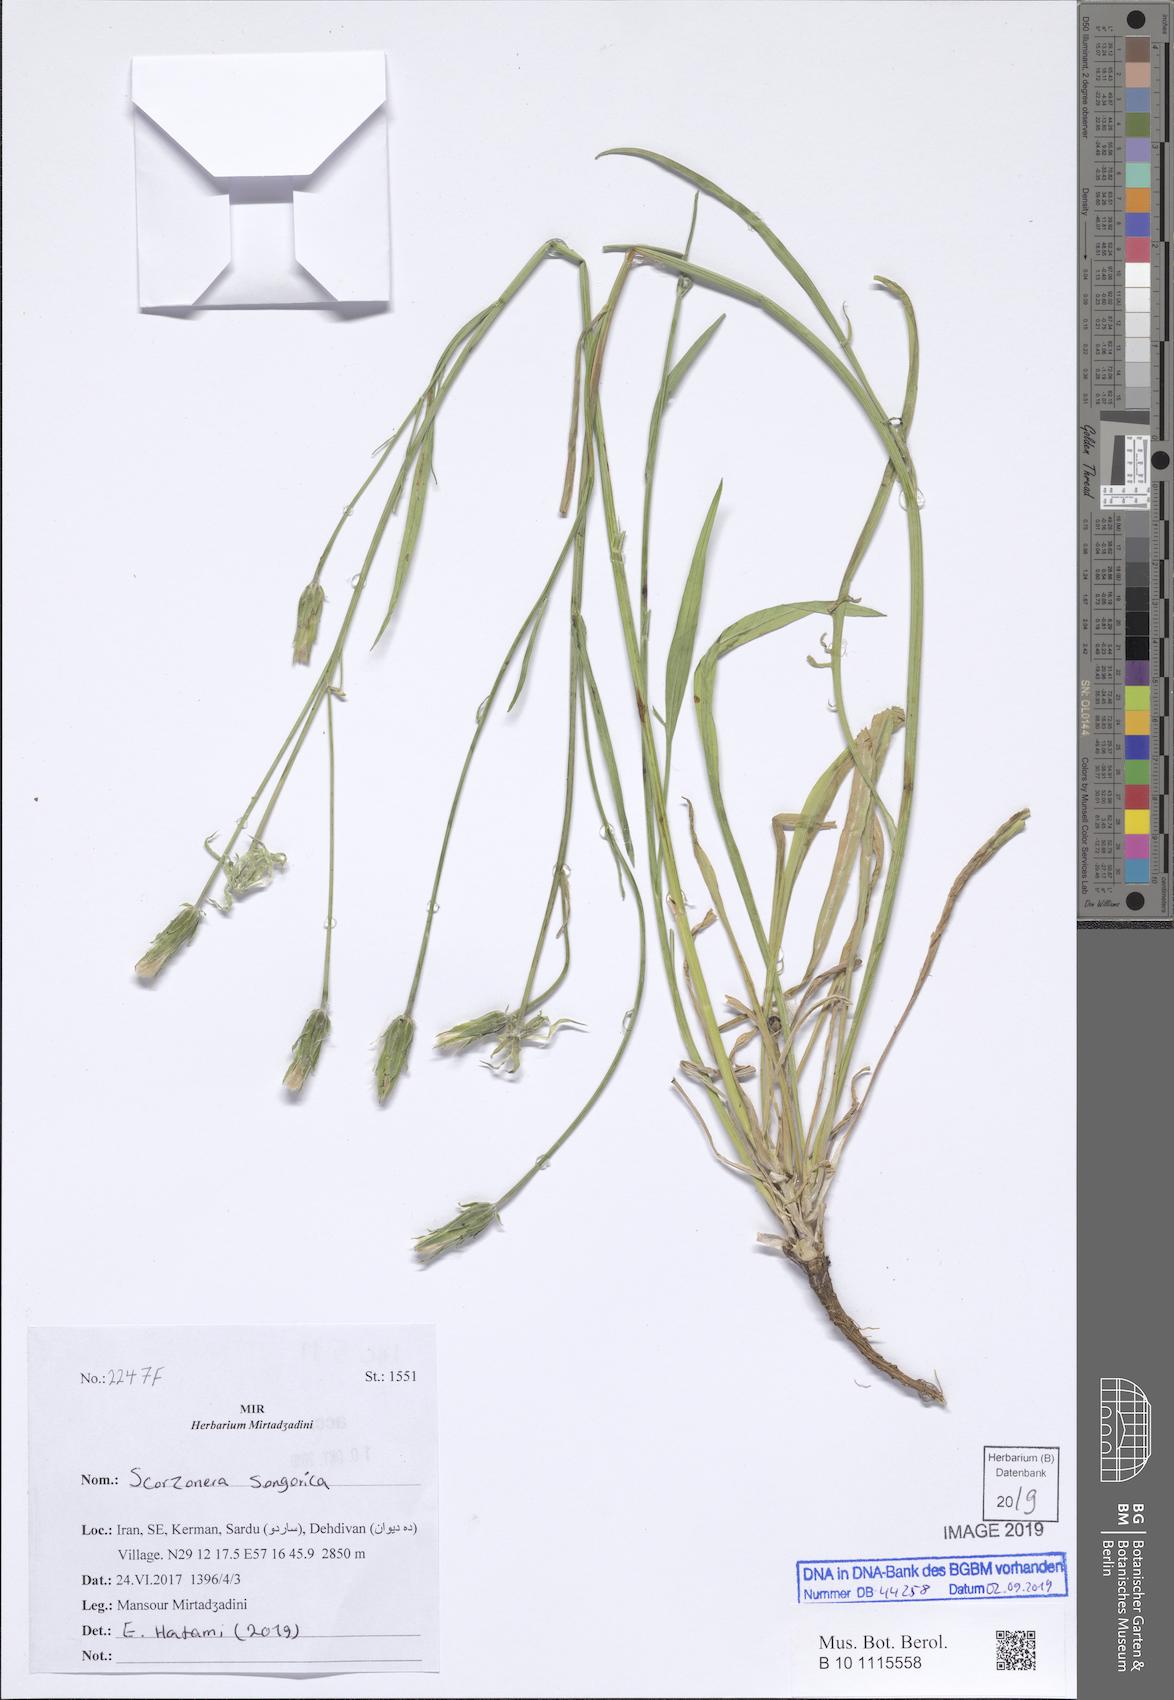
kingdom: Plantae
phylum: Tracheophyta
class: Magnoliopsida
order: Asterales
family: Asteraceae
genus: Scorzonera
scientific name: Scorzonera songorica
